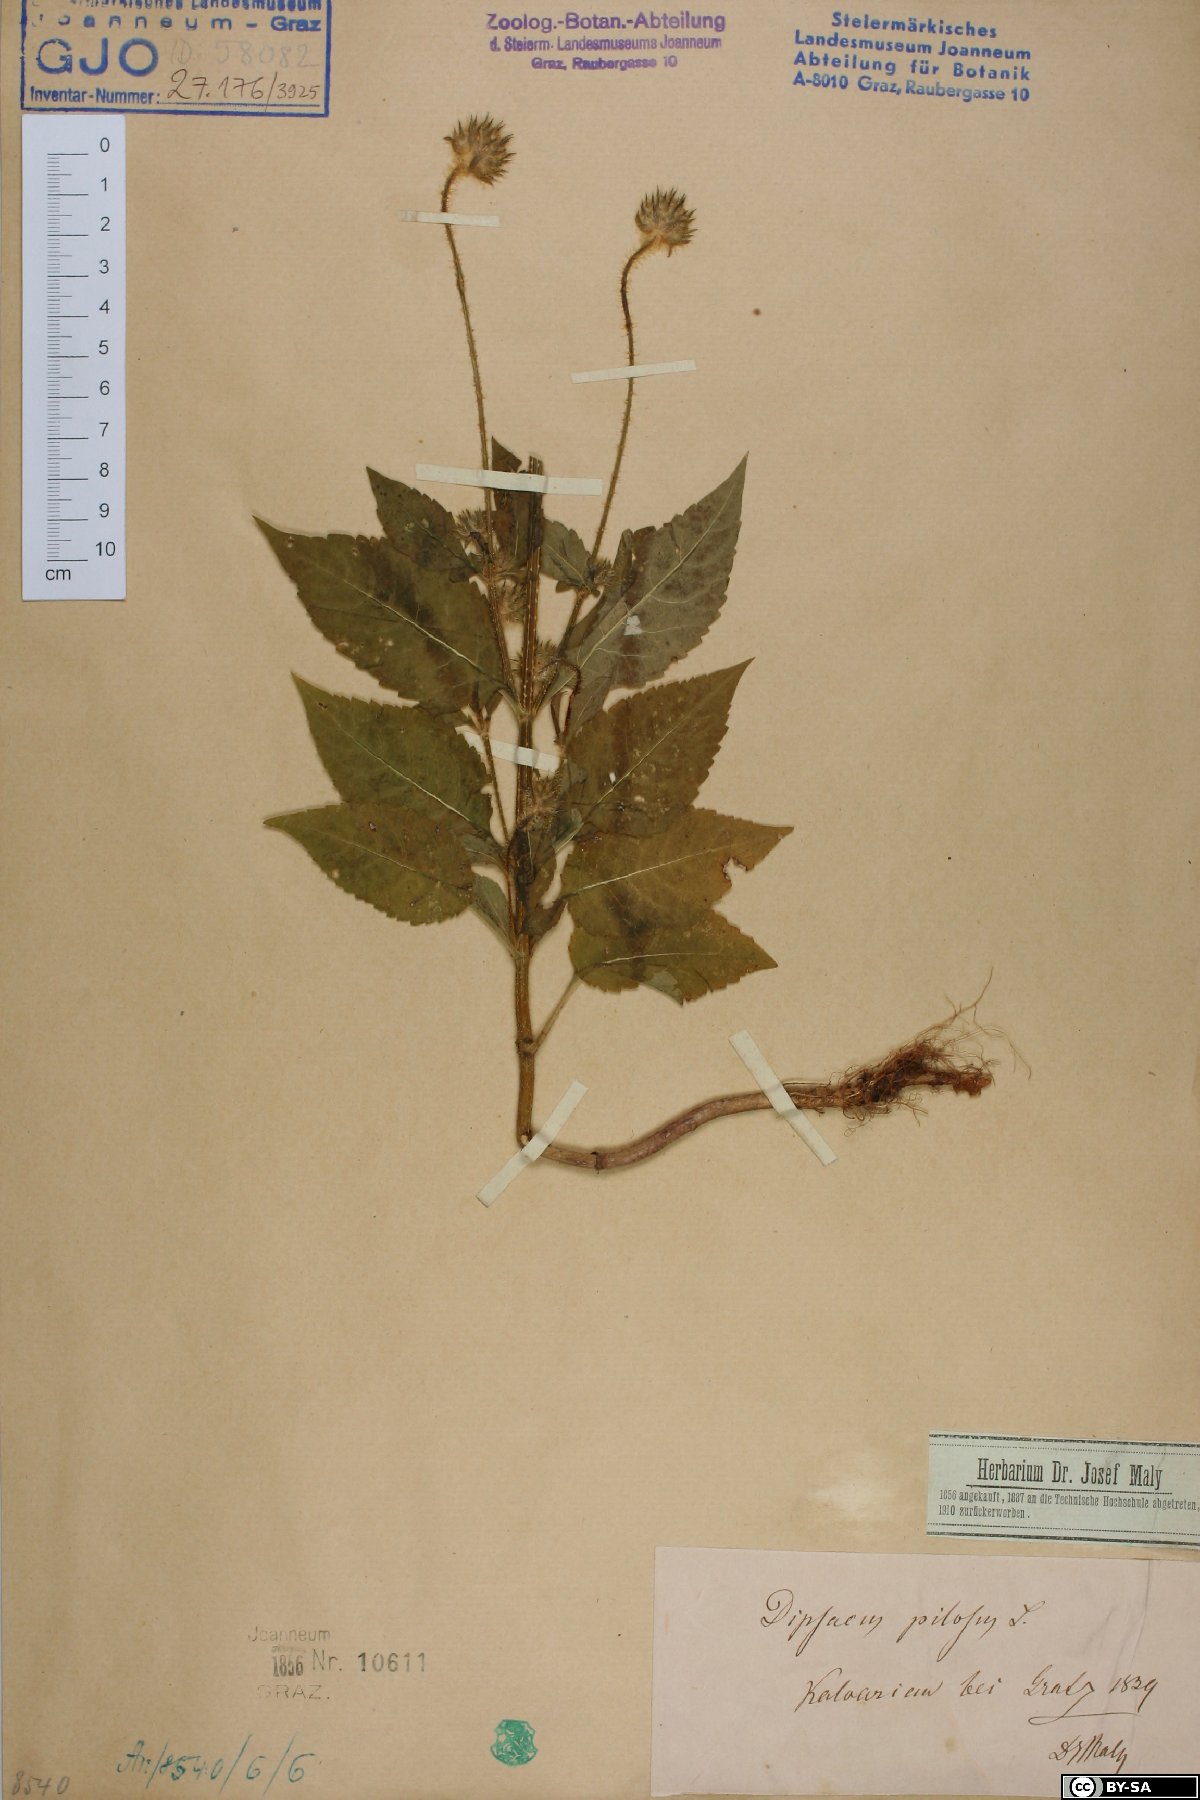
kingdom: Plantae
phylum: Tracheophyta
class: Magnoliopsida
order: Dipsacales
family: Caprifoliaceae
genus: Dipsacus
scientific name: Dipsacus pilosus
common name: Small teasel
